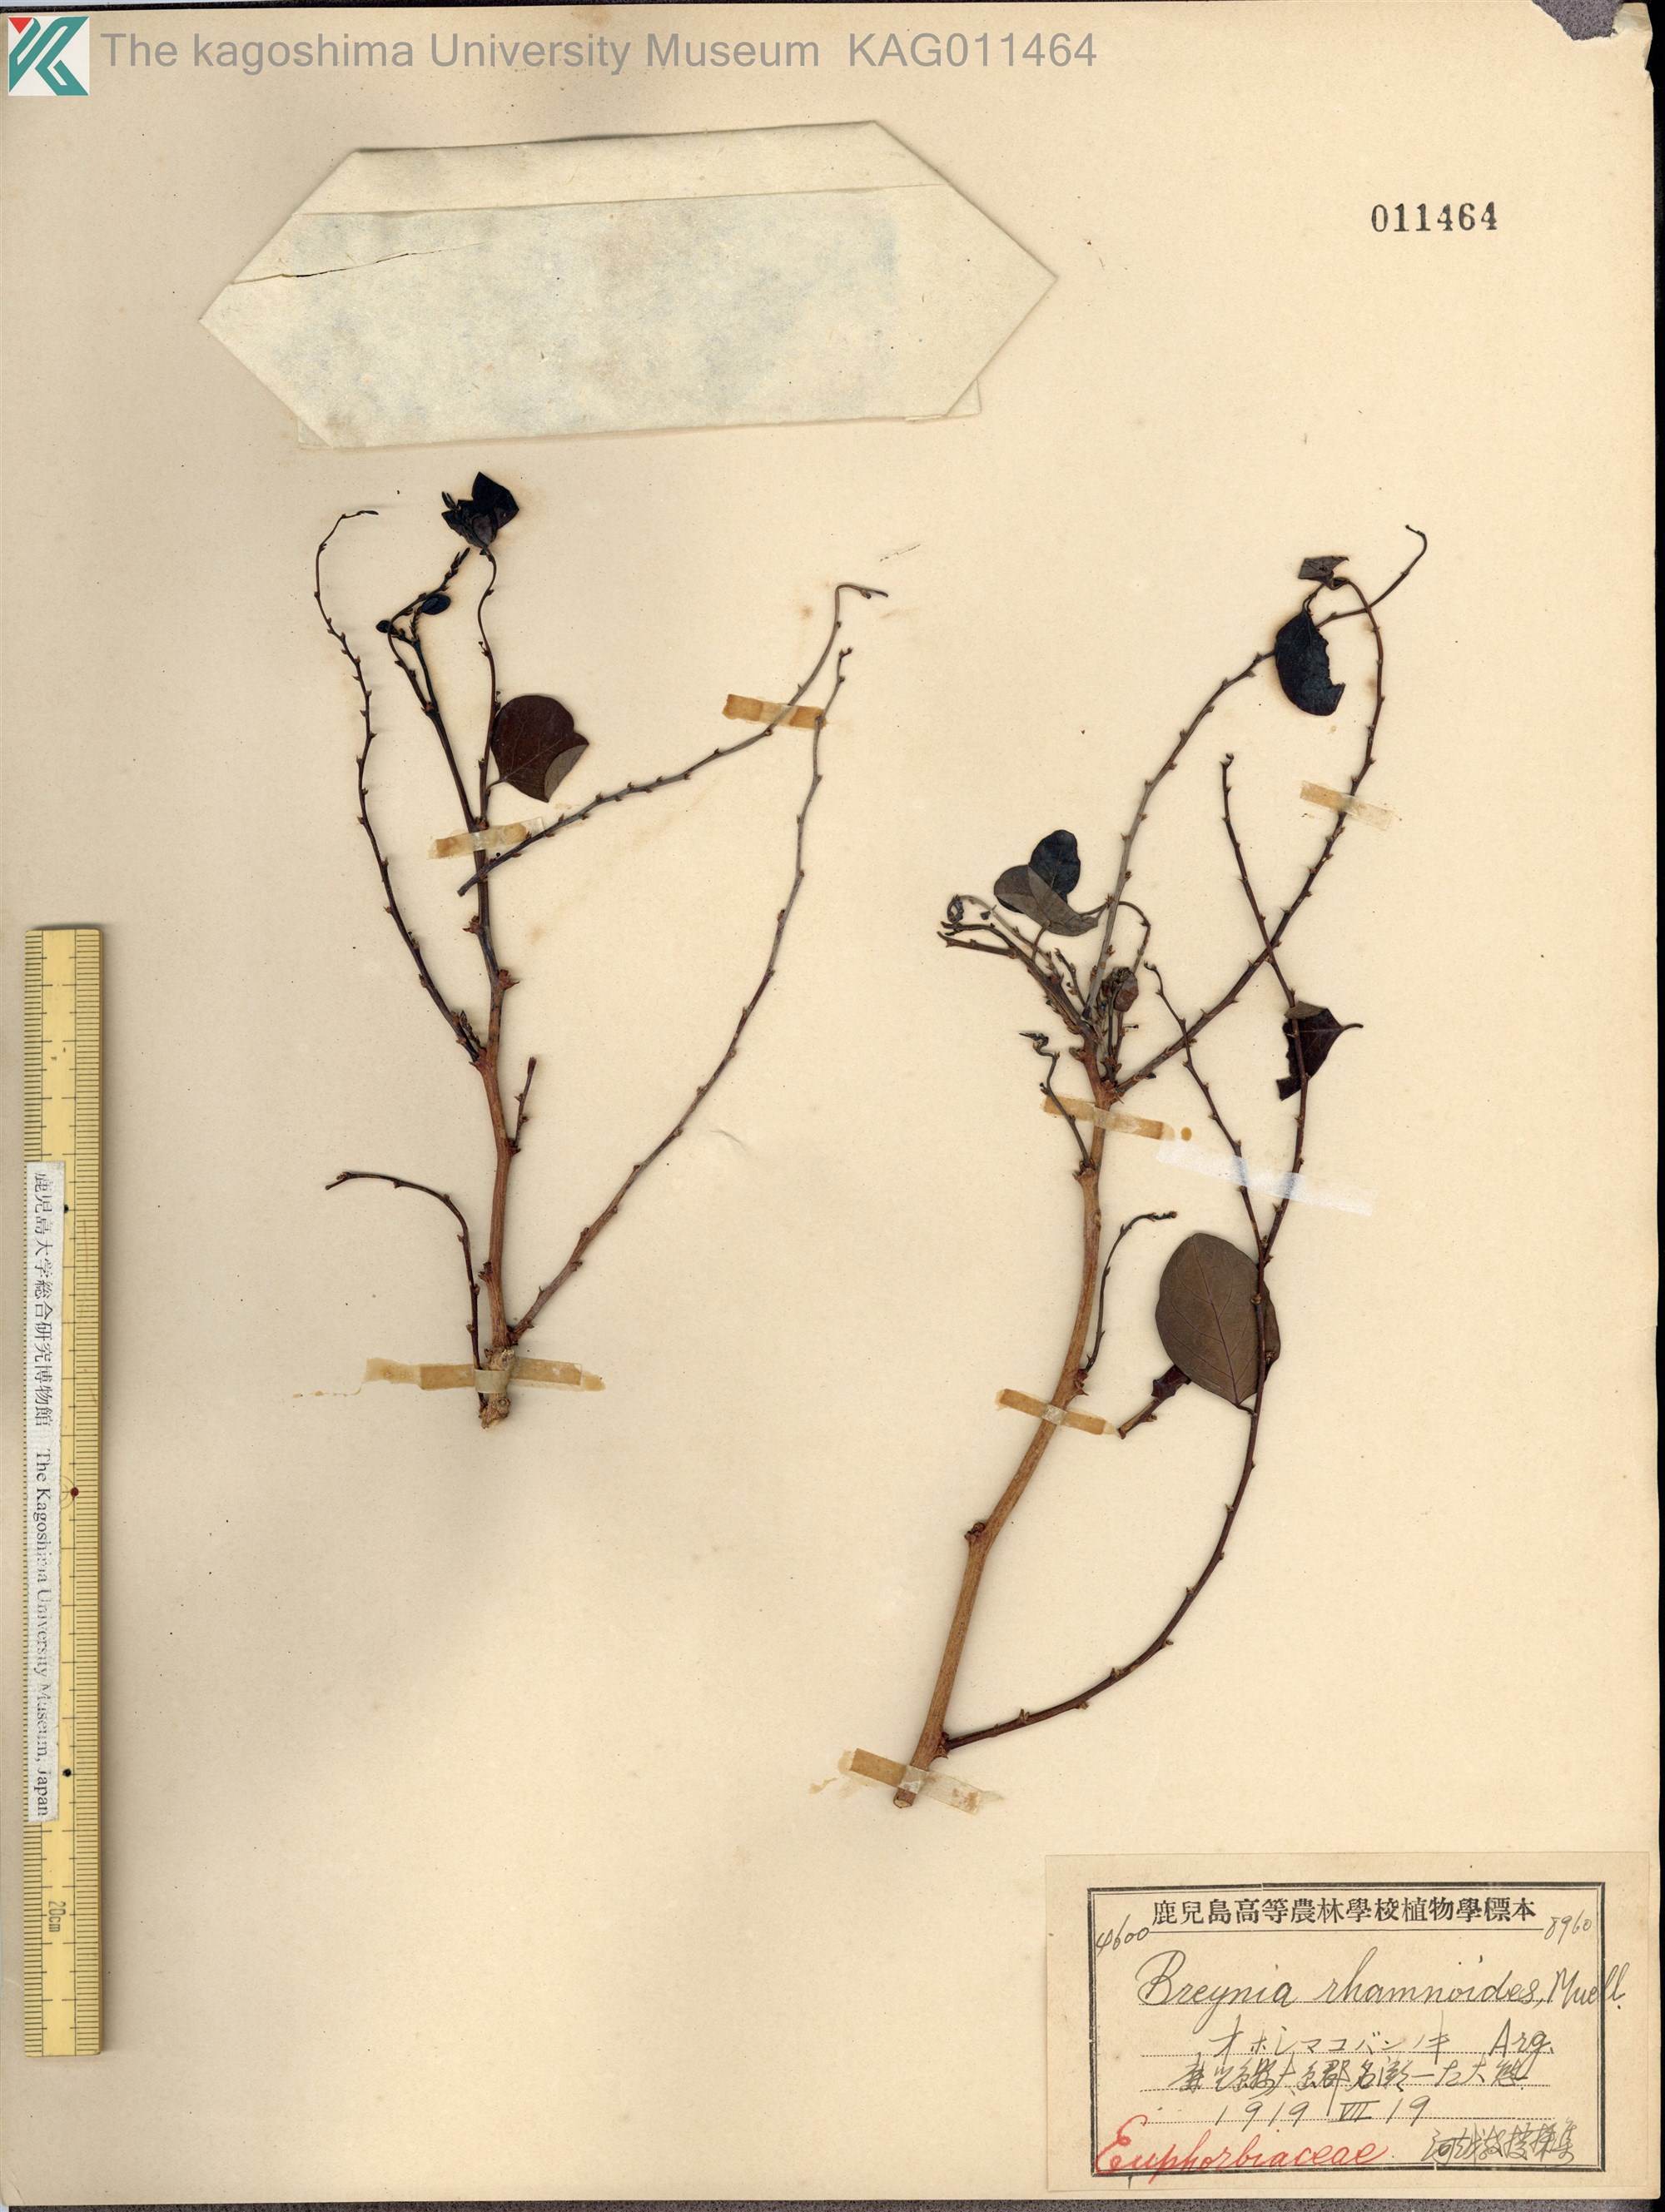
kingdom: Plantae
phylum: Tracheophyta
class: Magnoliopsida
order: Malpighiales
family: Phyllanthaceae
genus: Breynia
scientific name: Breynia vitis-idaea
